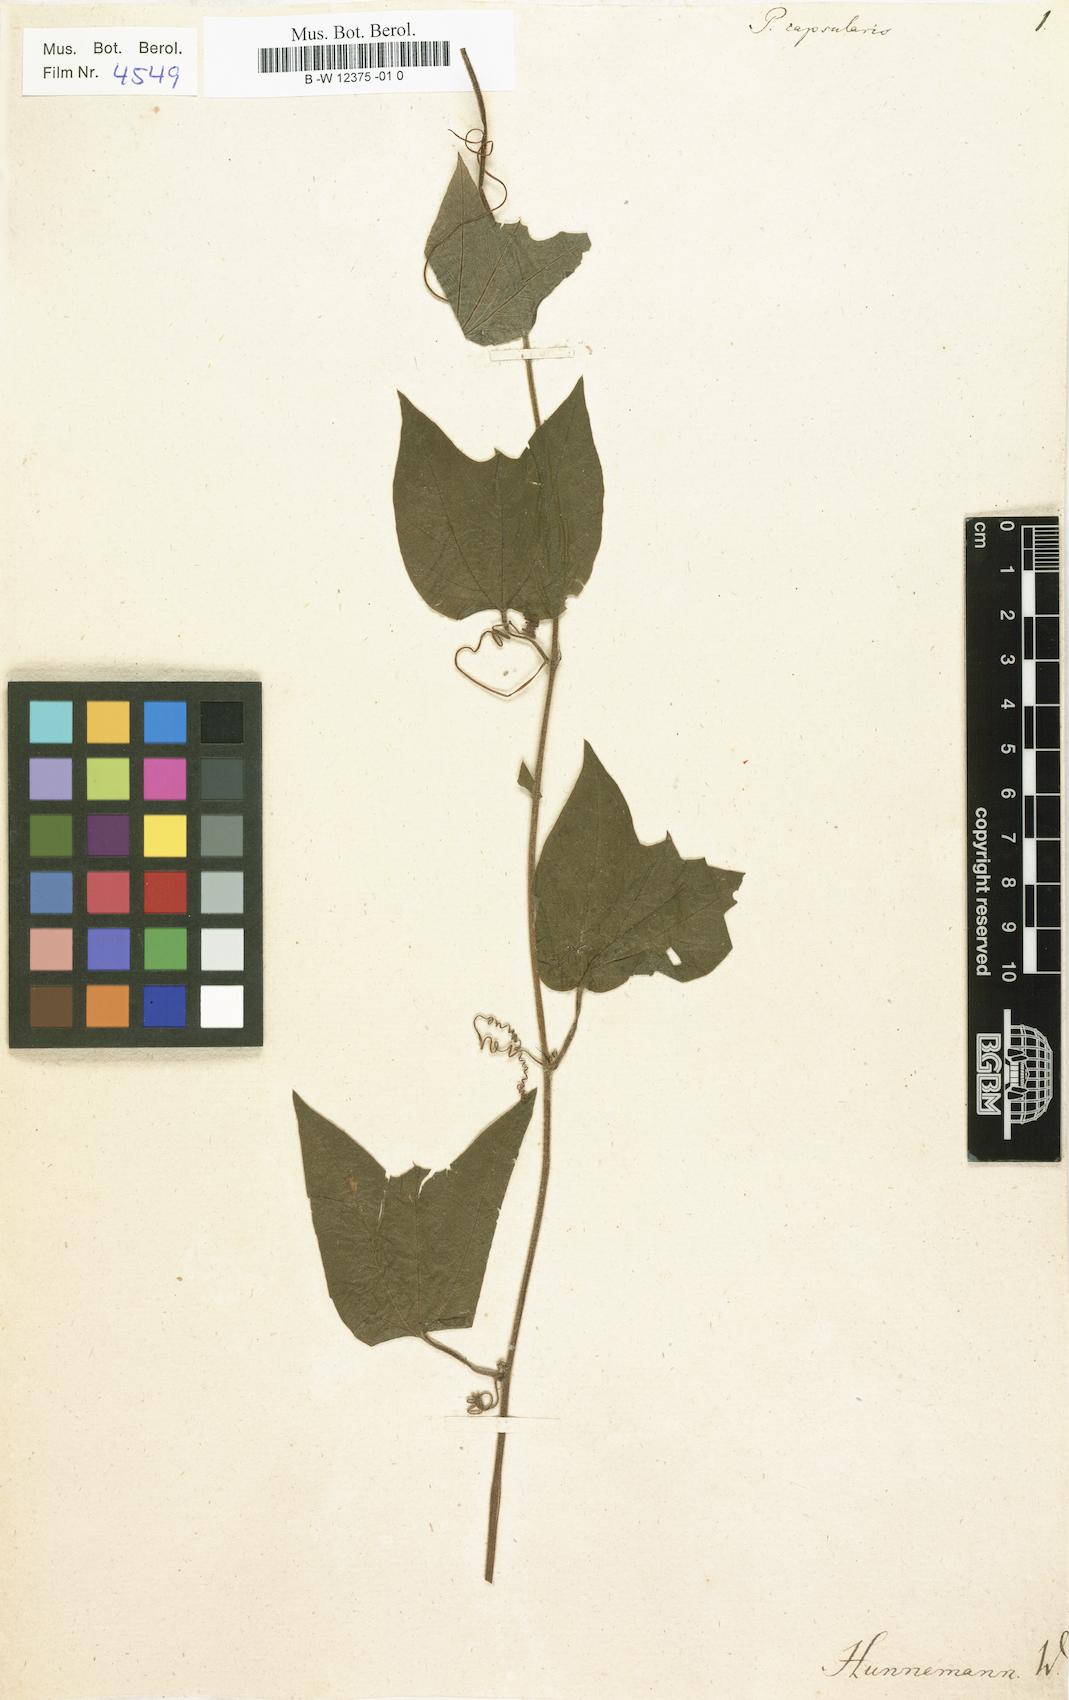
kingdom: Plantae
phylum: Tracheophyta
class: Magnoliopsida
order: Malpighiales
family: Passifloraceae
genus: Passiflora
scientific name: Passiflora capsularis
